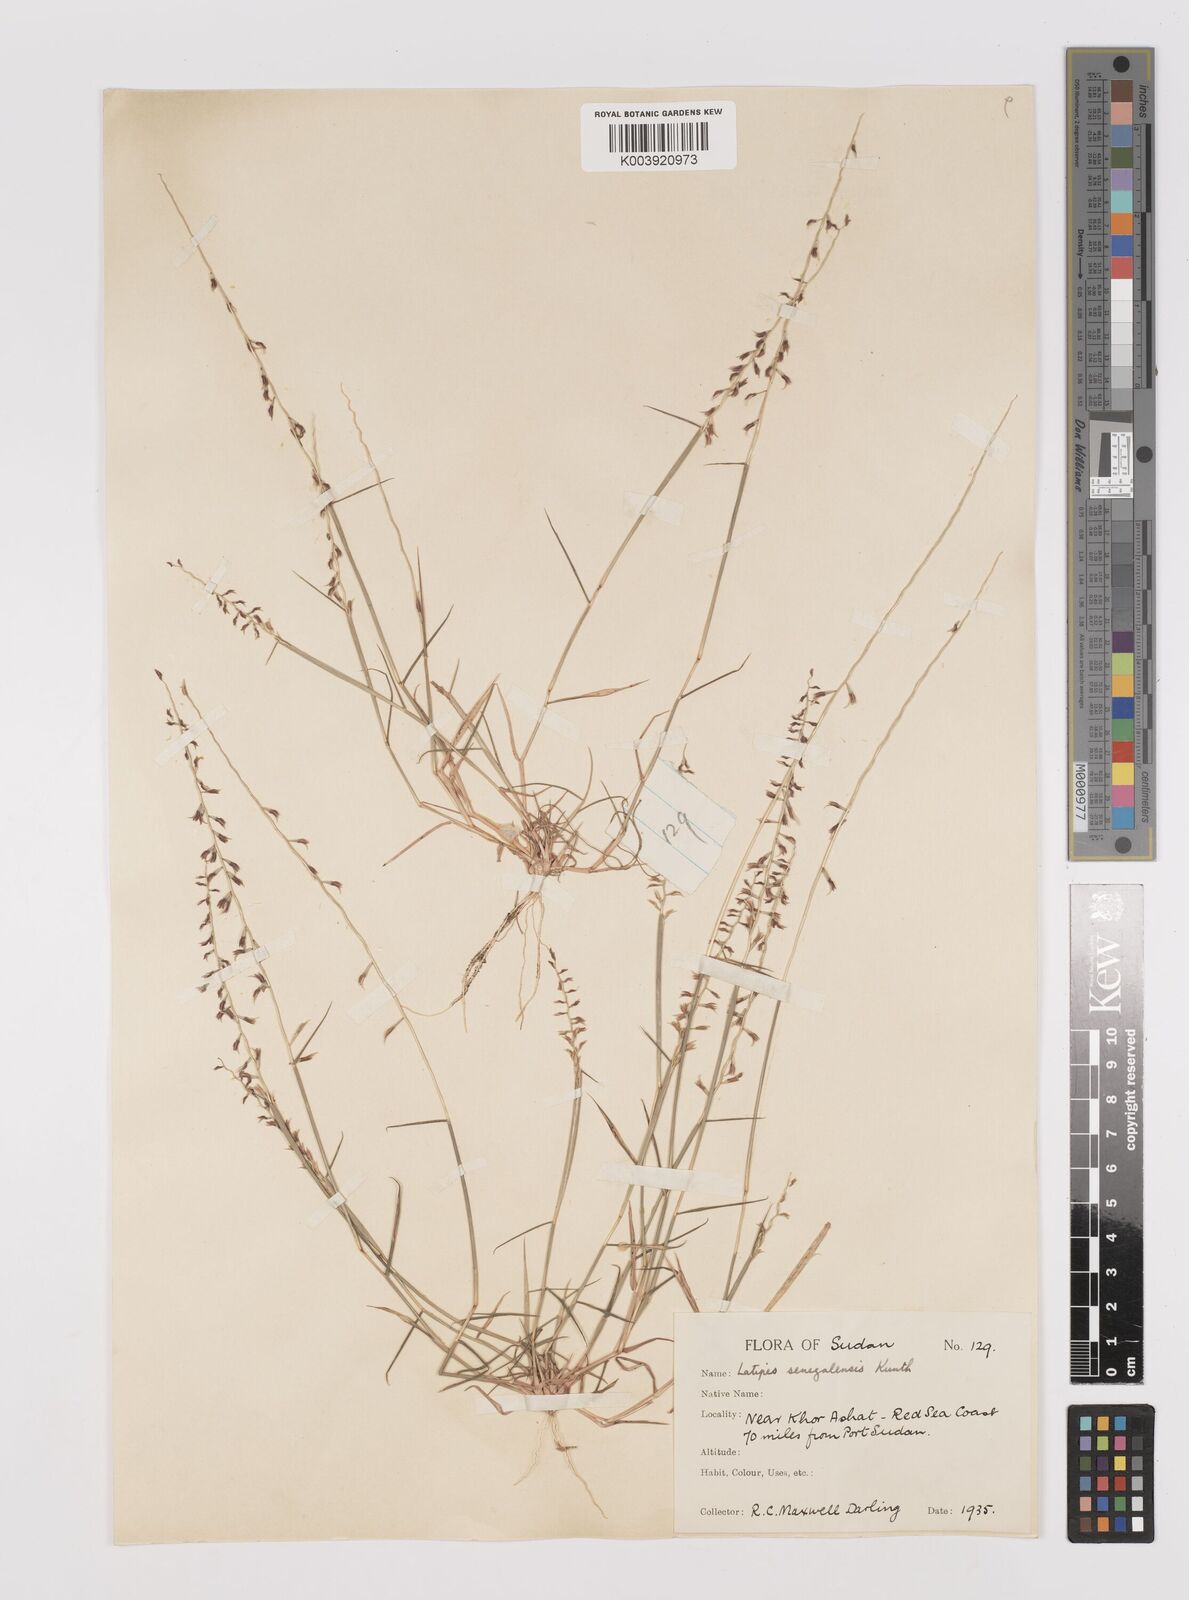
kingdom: Plantae
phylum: Tracheophyta
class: Liliopsida
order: Poales
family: Poaceae
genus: Leptothrium
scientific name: Leptothrium senegalense
